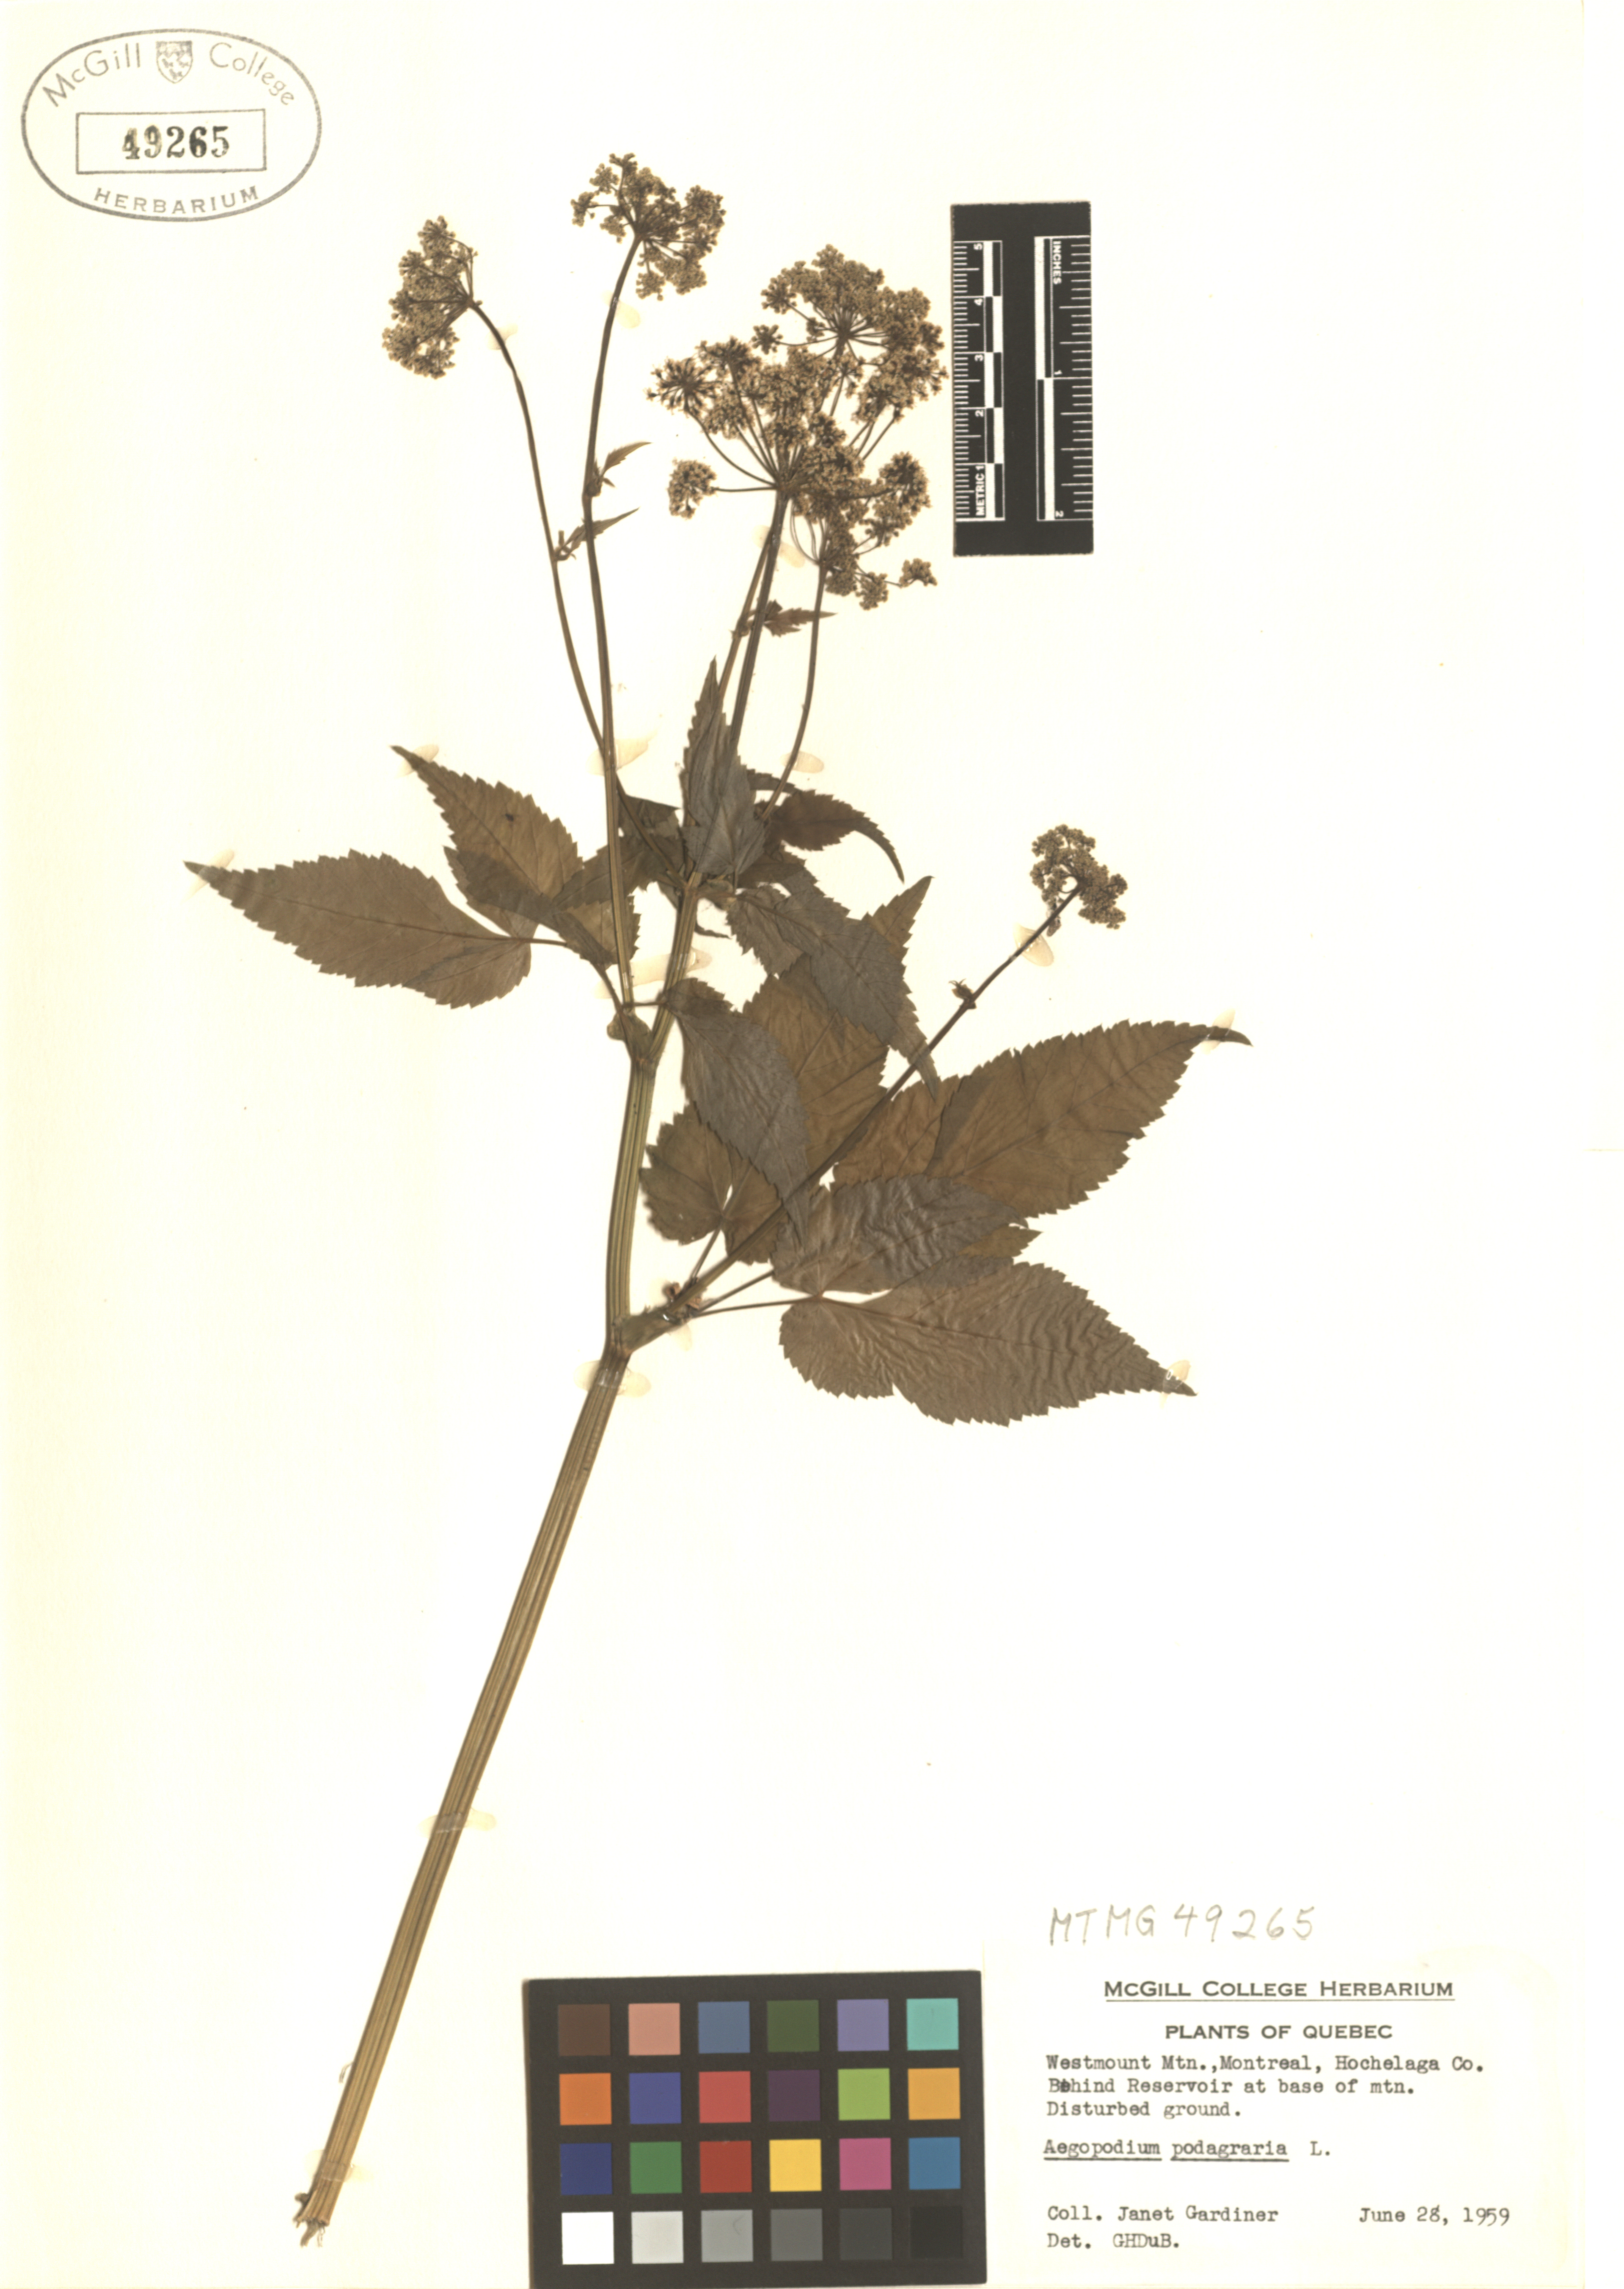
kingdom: Plantae
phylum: Tracheophyta
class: Magnoliopsida
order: Apiales
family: Apiaceae
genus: Aegopodium
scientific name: Aegopodium podagraria
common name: Ground-elder
